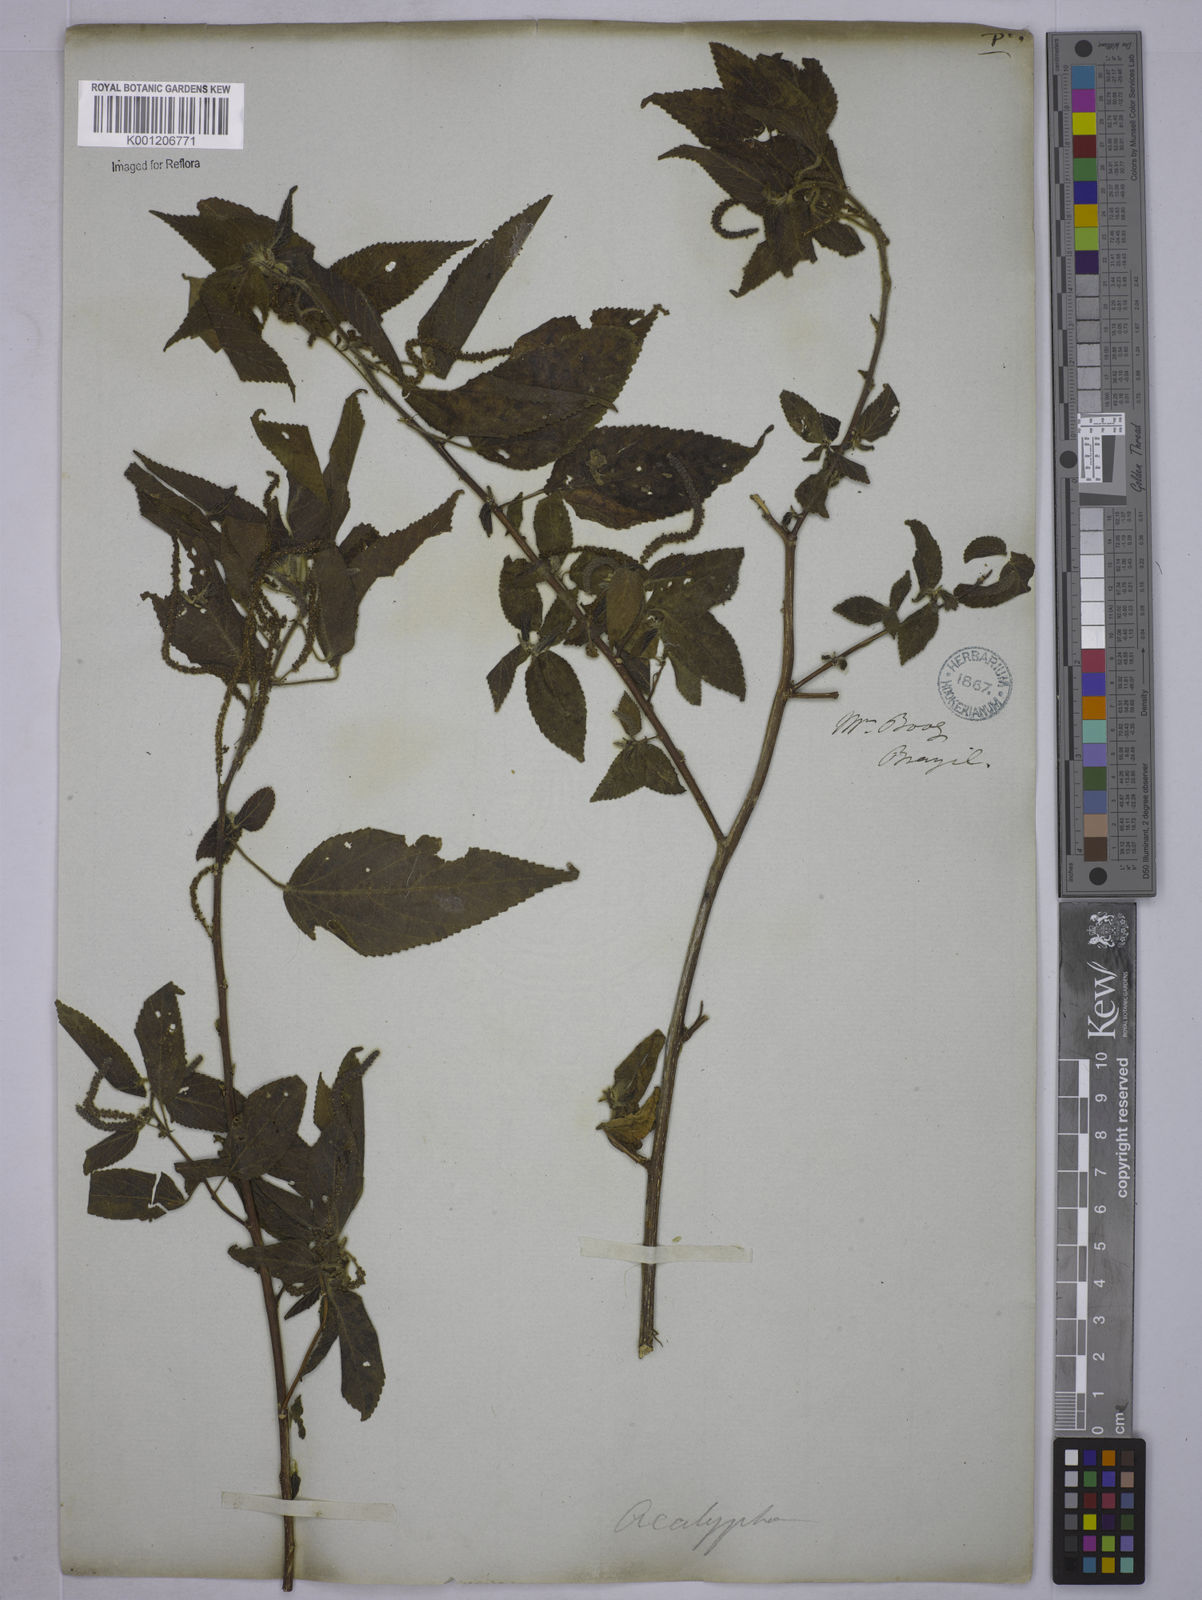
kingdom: Plantae
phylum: Tracheophyta
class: Magnoliopsida
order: Malpighiales
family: Euphorbiaceae
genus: Acalypha
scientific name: Acalypha
